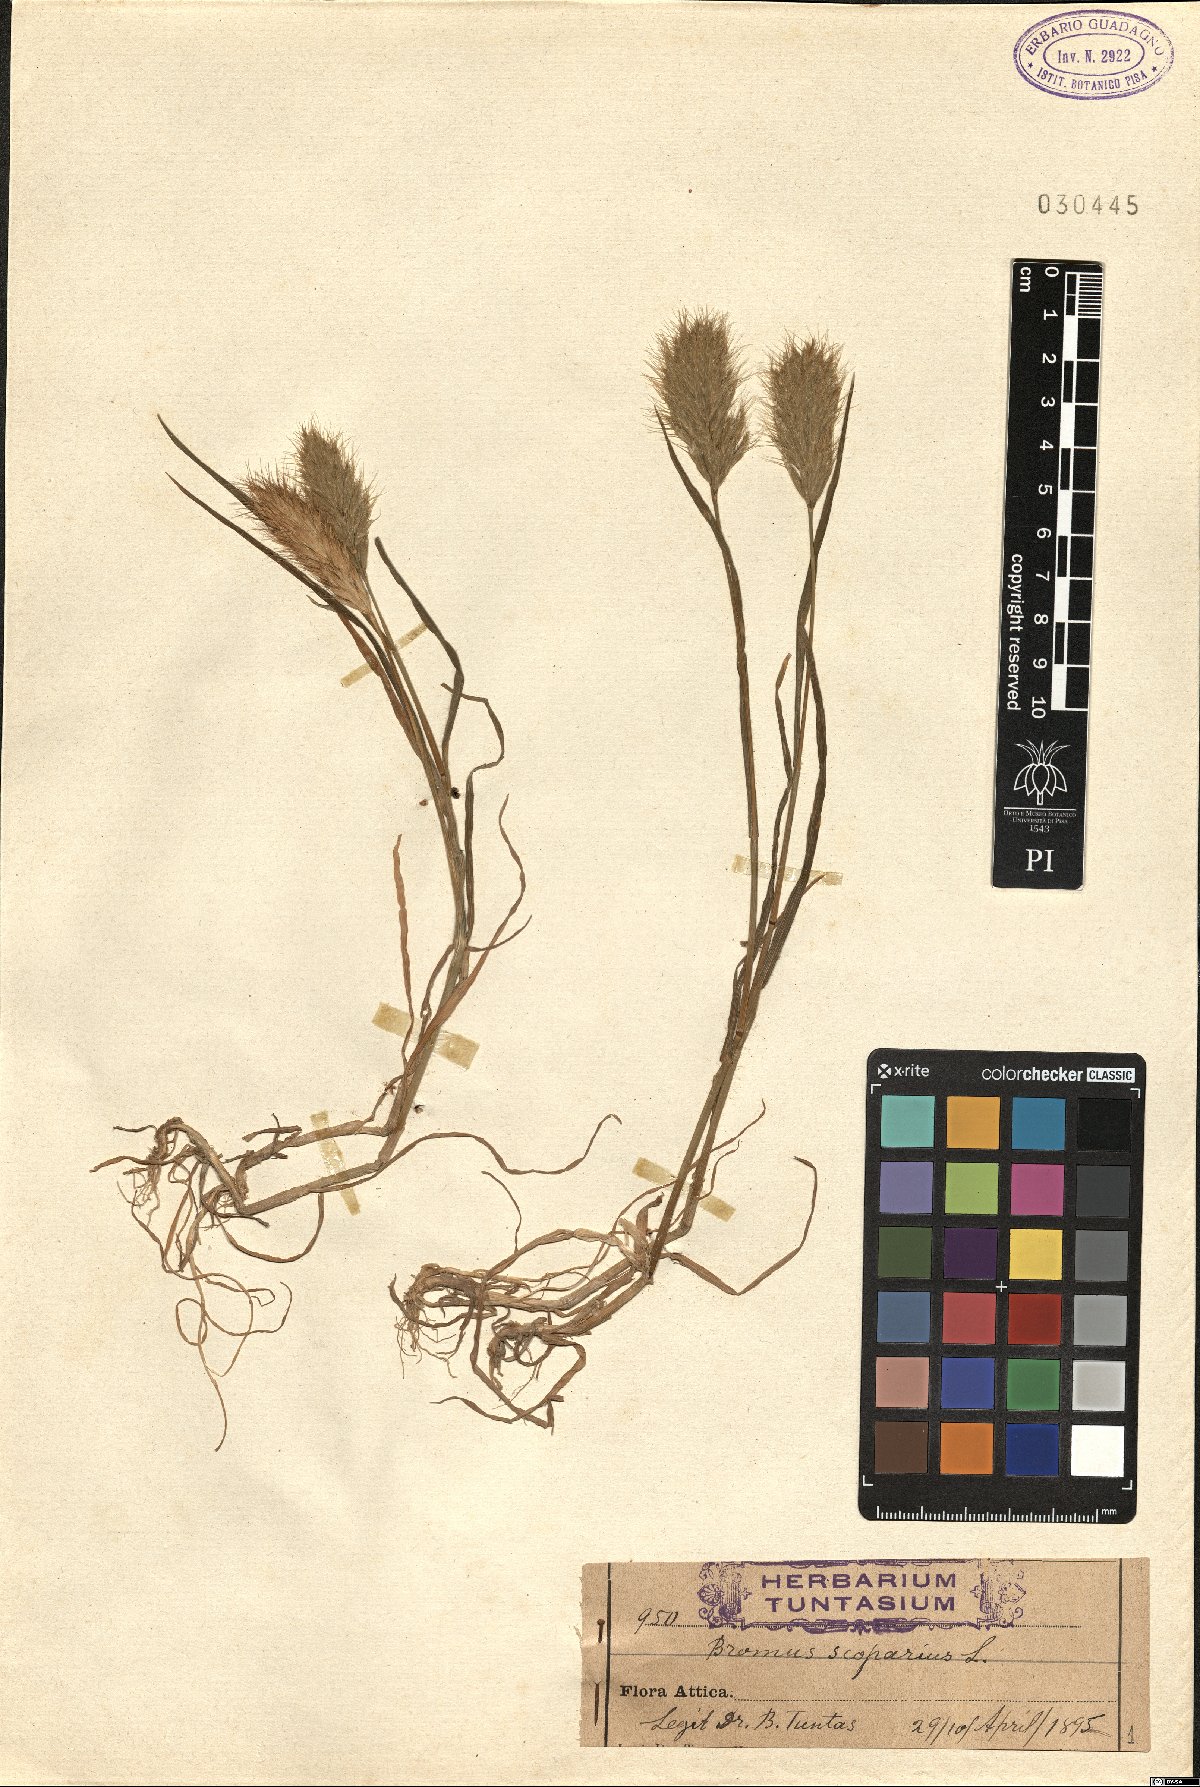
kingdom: Plantae
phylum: Tracheophyta
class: Liliopsida
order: Poales
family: Poaceae
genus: Bromus
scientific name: Bromus scoparius
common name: Broom brome
